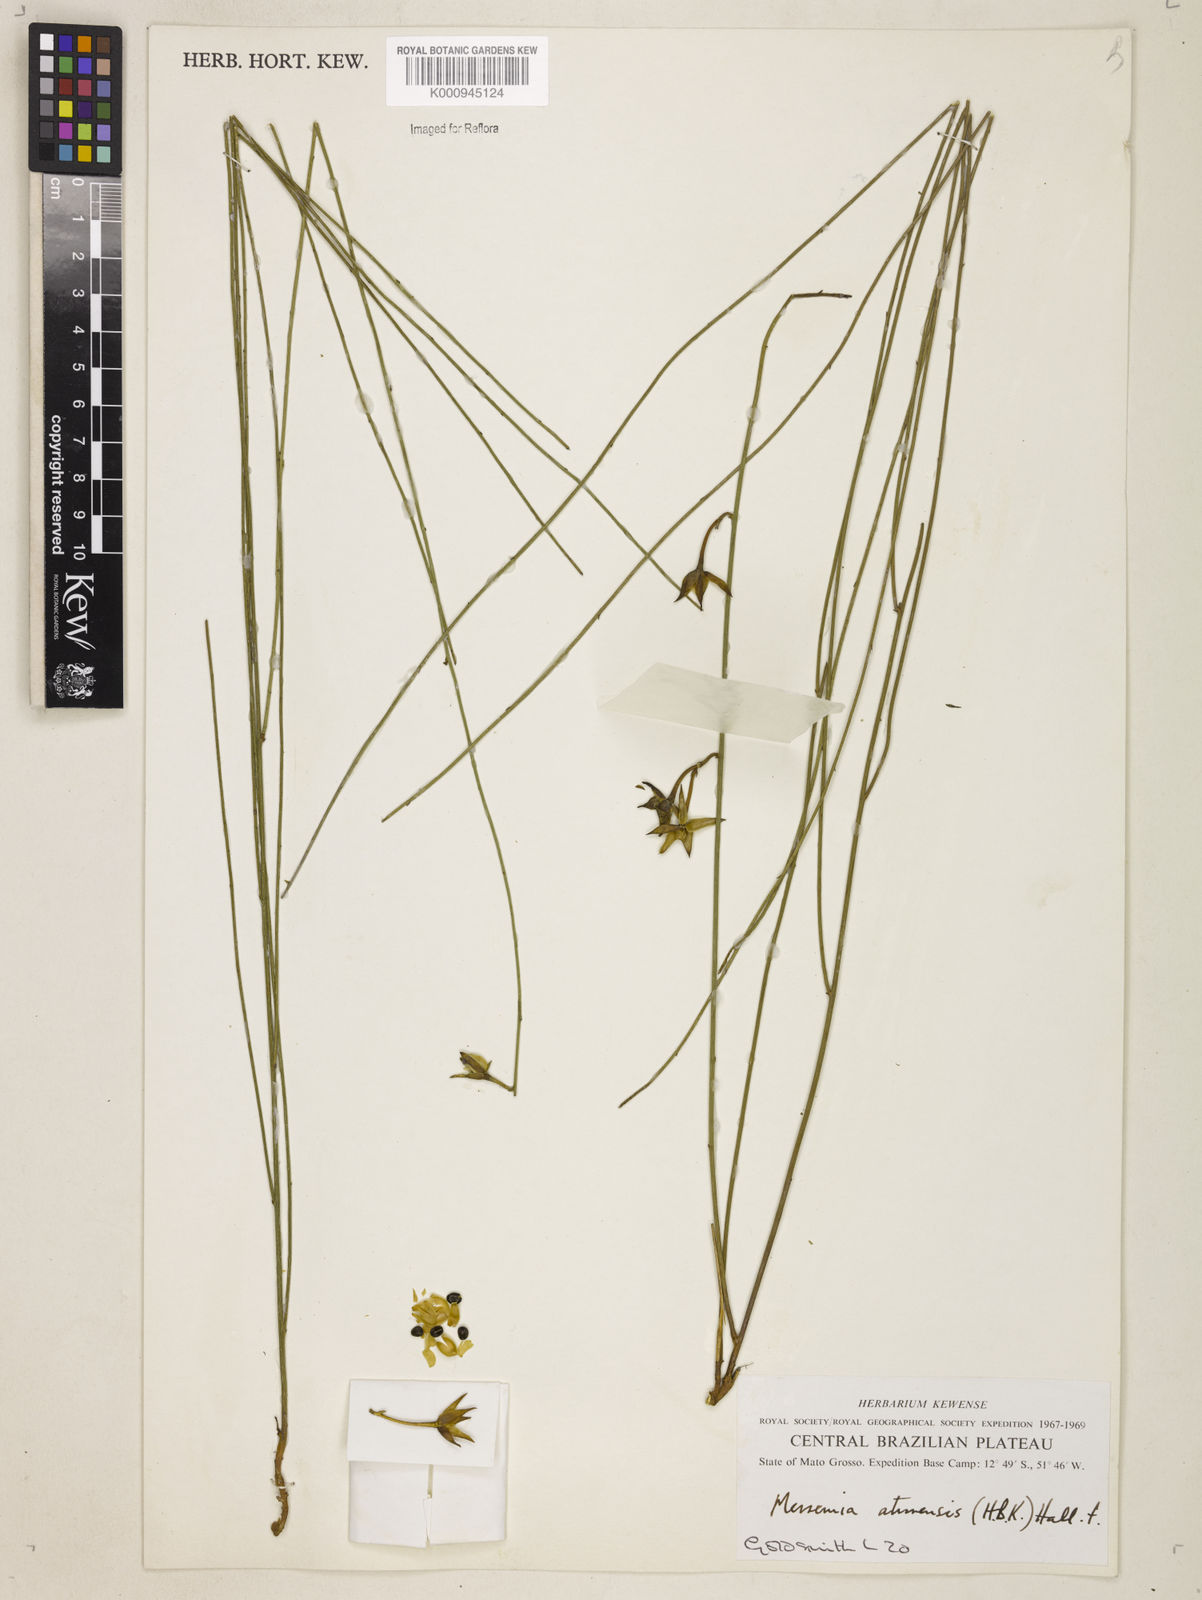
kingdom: Plantae
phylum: Tracheophyta
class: Magnoliopsida
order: Solanales
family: Convolvulaceae
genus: Distimake
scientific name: Distimake aturensis
